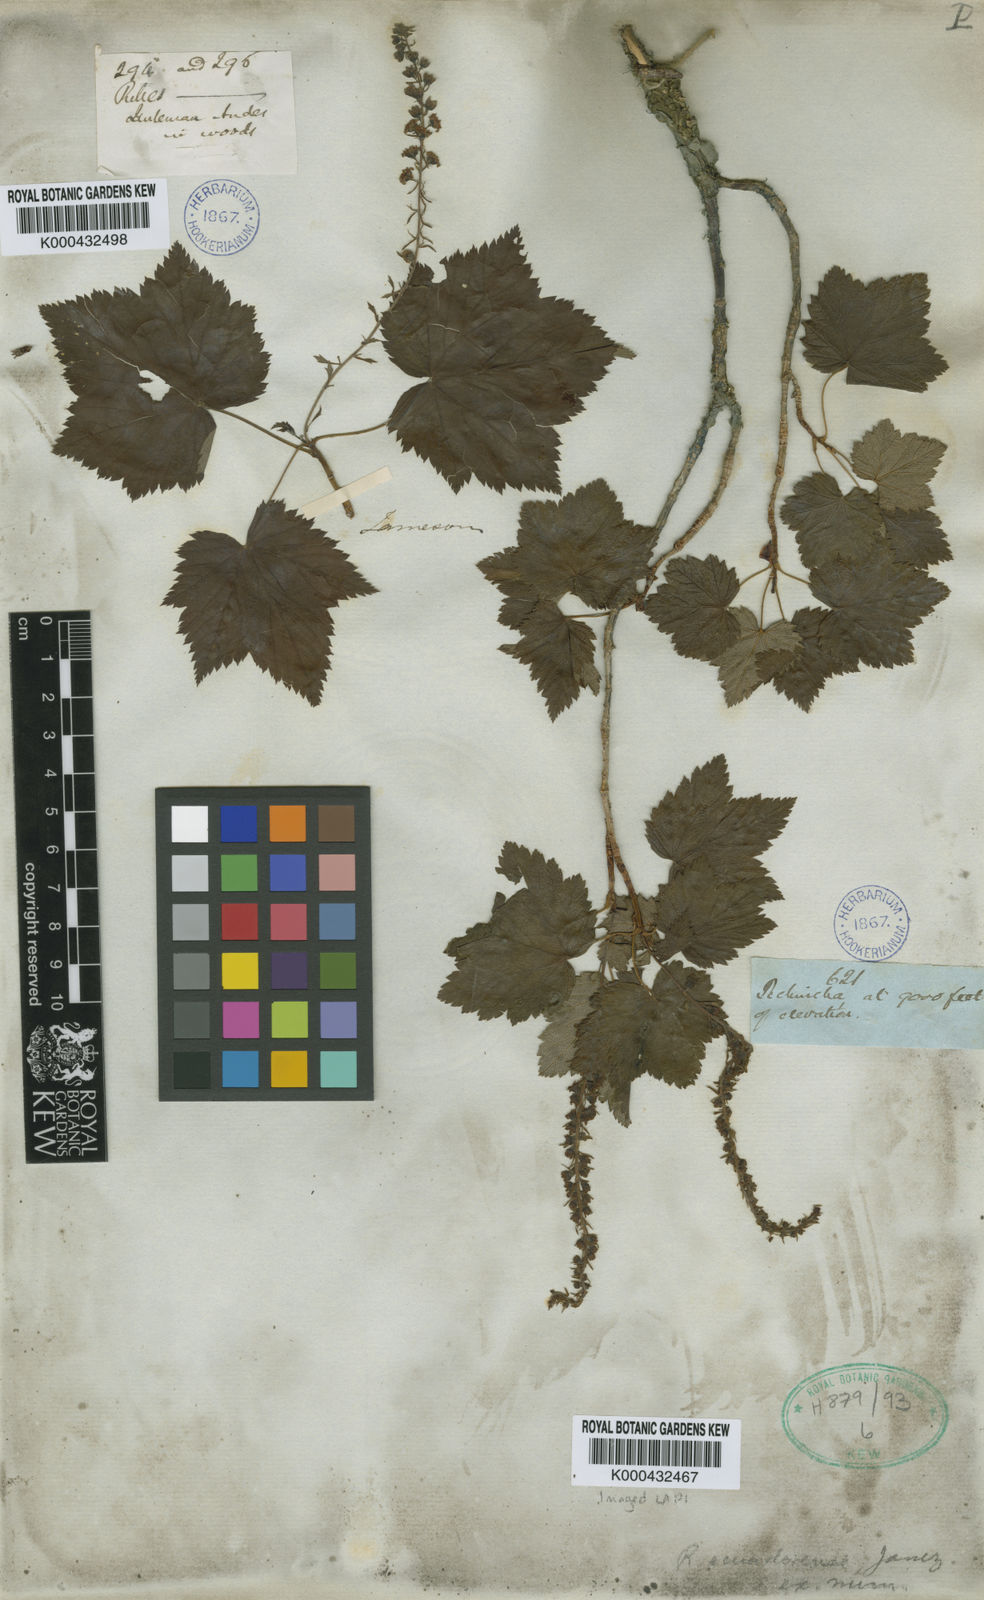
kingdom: Plantae
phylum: Tracheophyta
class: Magnoliopsida
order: Saxifragales
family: Grossulariaceae
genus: Ribes
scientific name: Ribes ecuadorense
